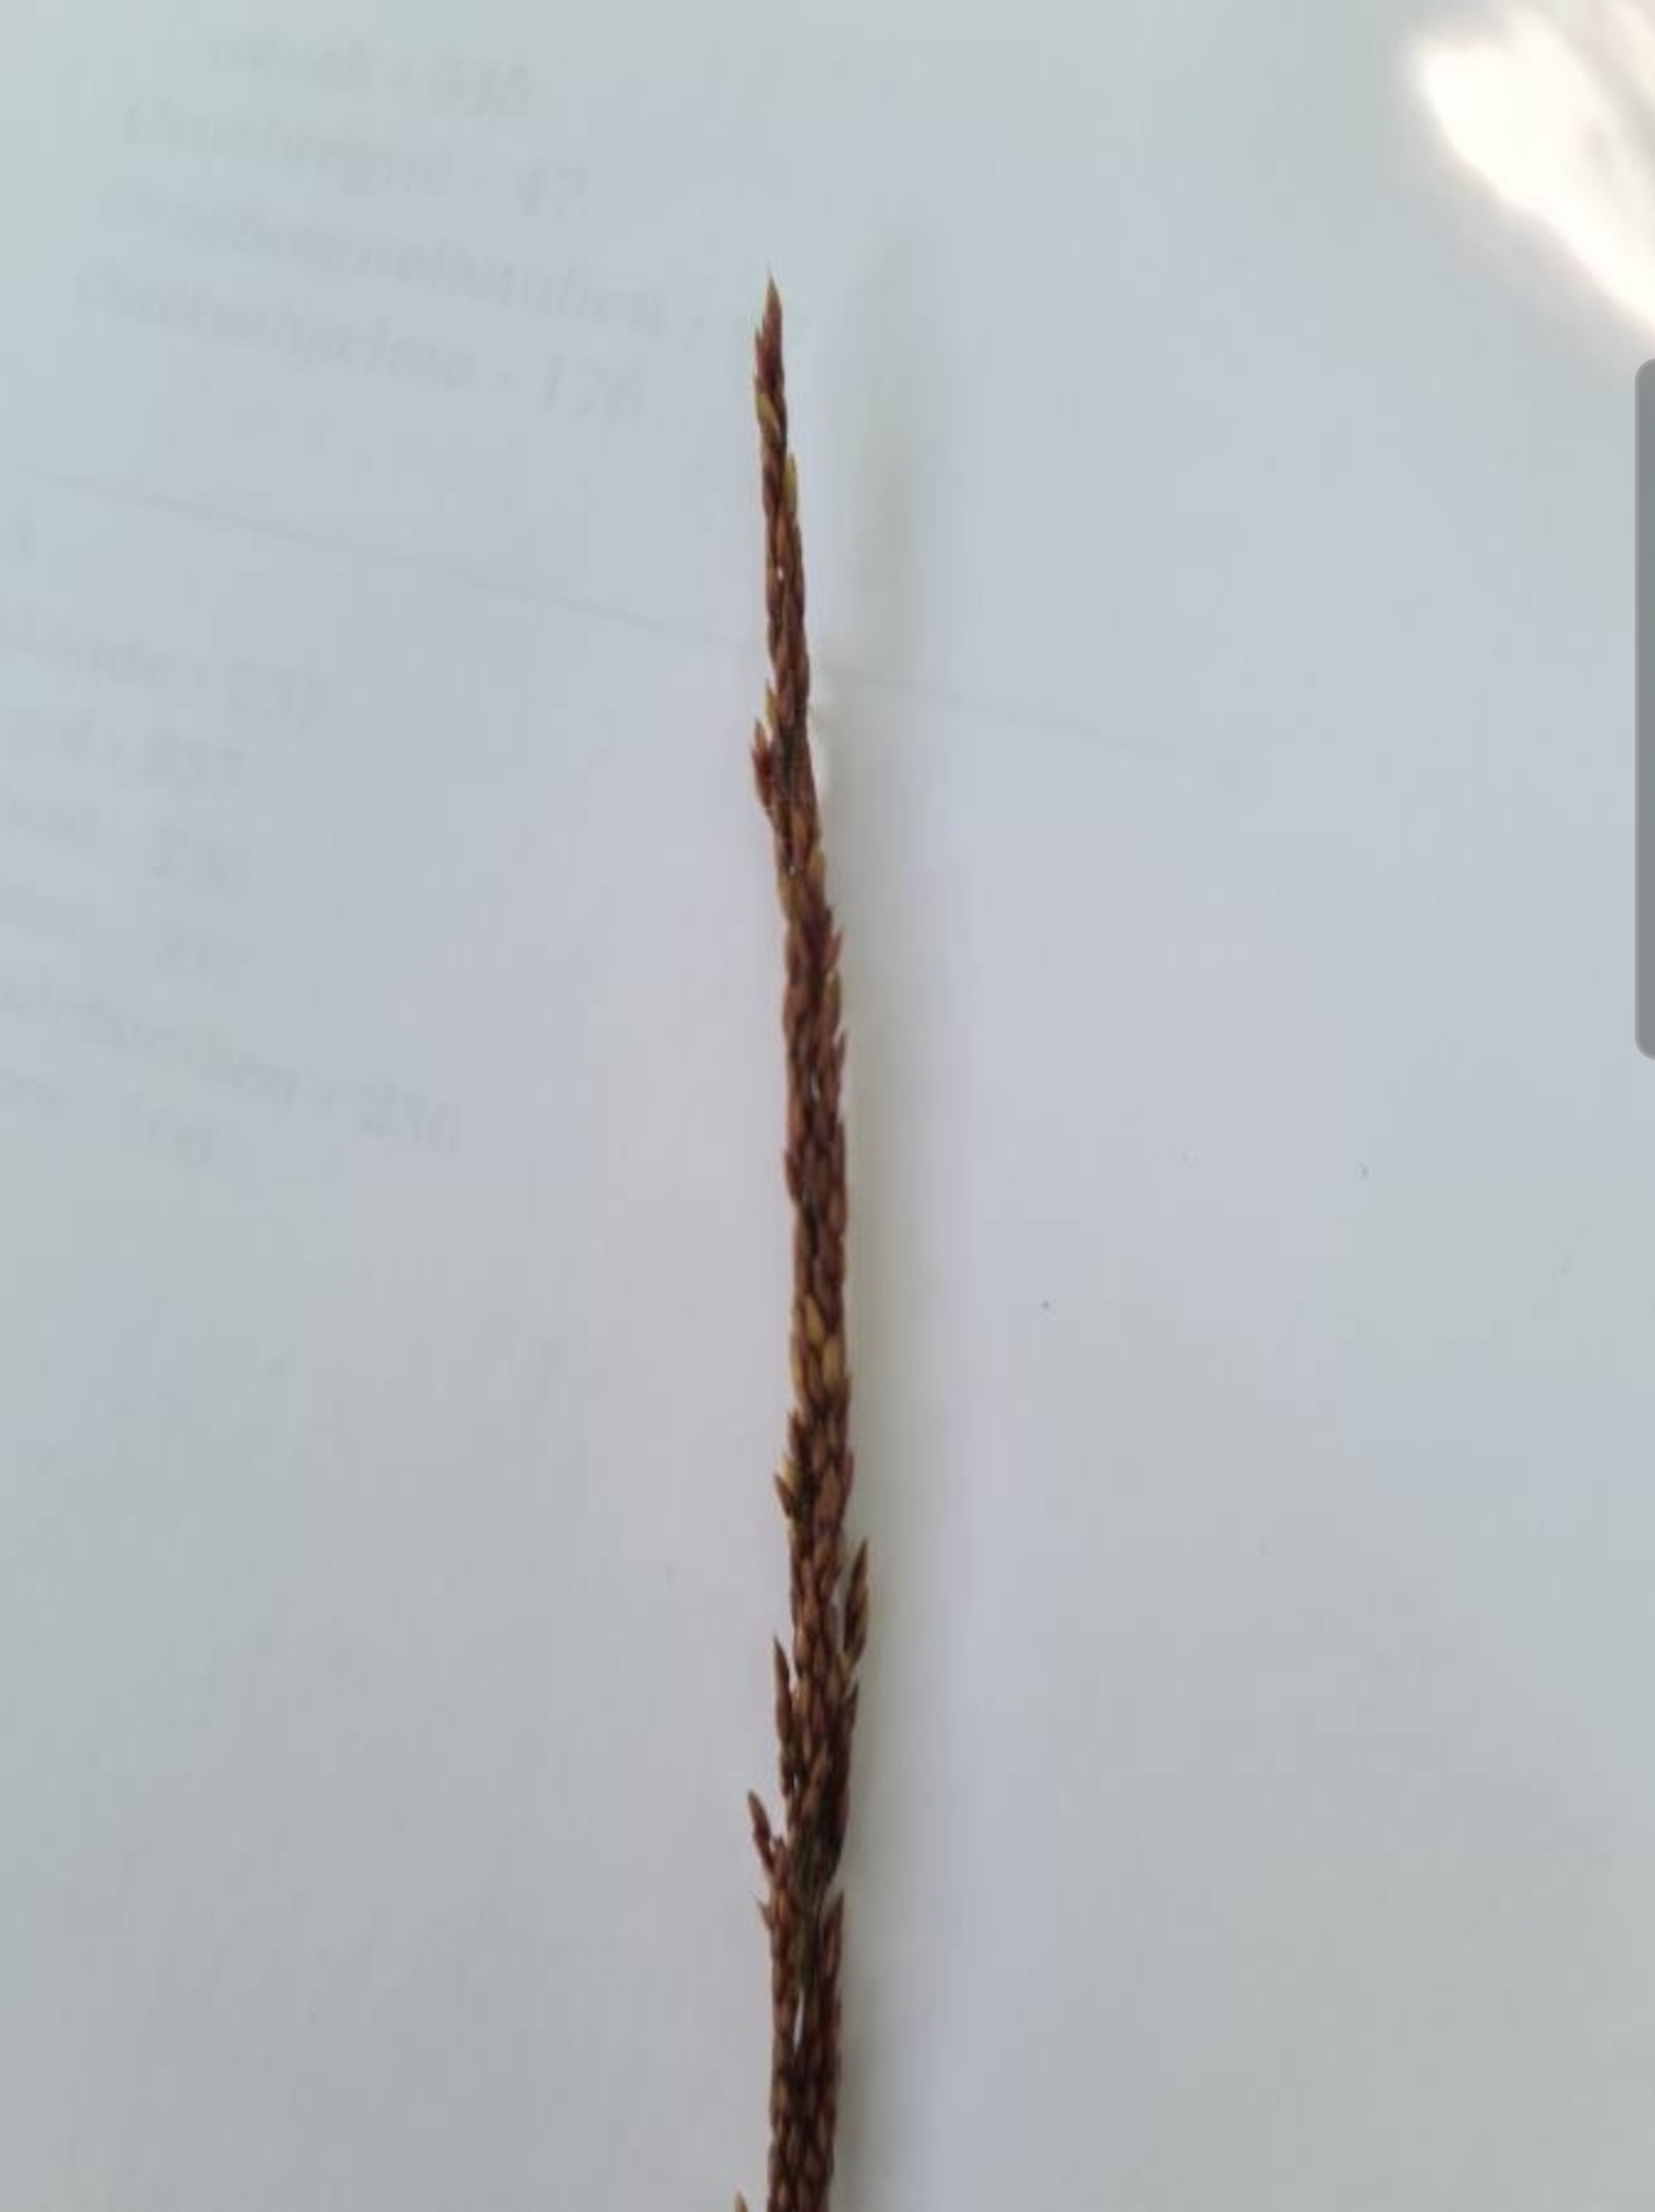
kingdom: Plantae
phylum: Tracheophyta
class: Liliopsida
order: Poales
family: Poaceae
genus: Agrostis
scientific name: Agrostis stolonifera
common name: Kryb-hvene
